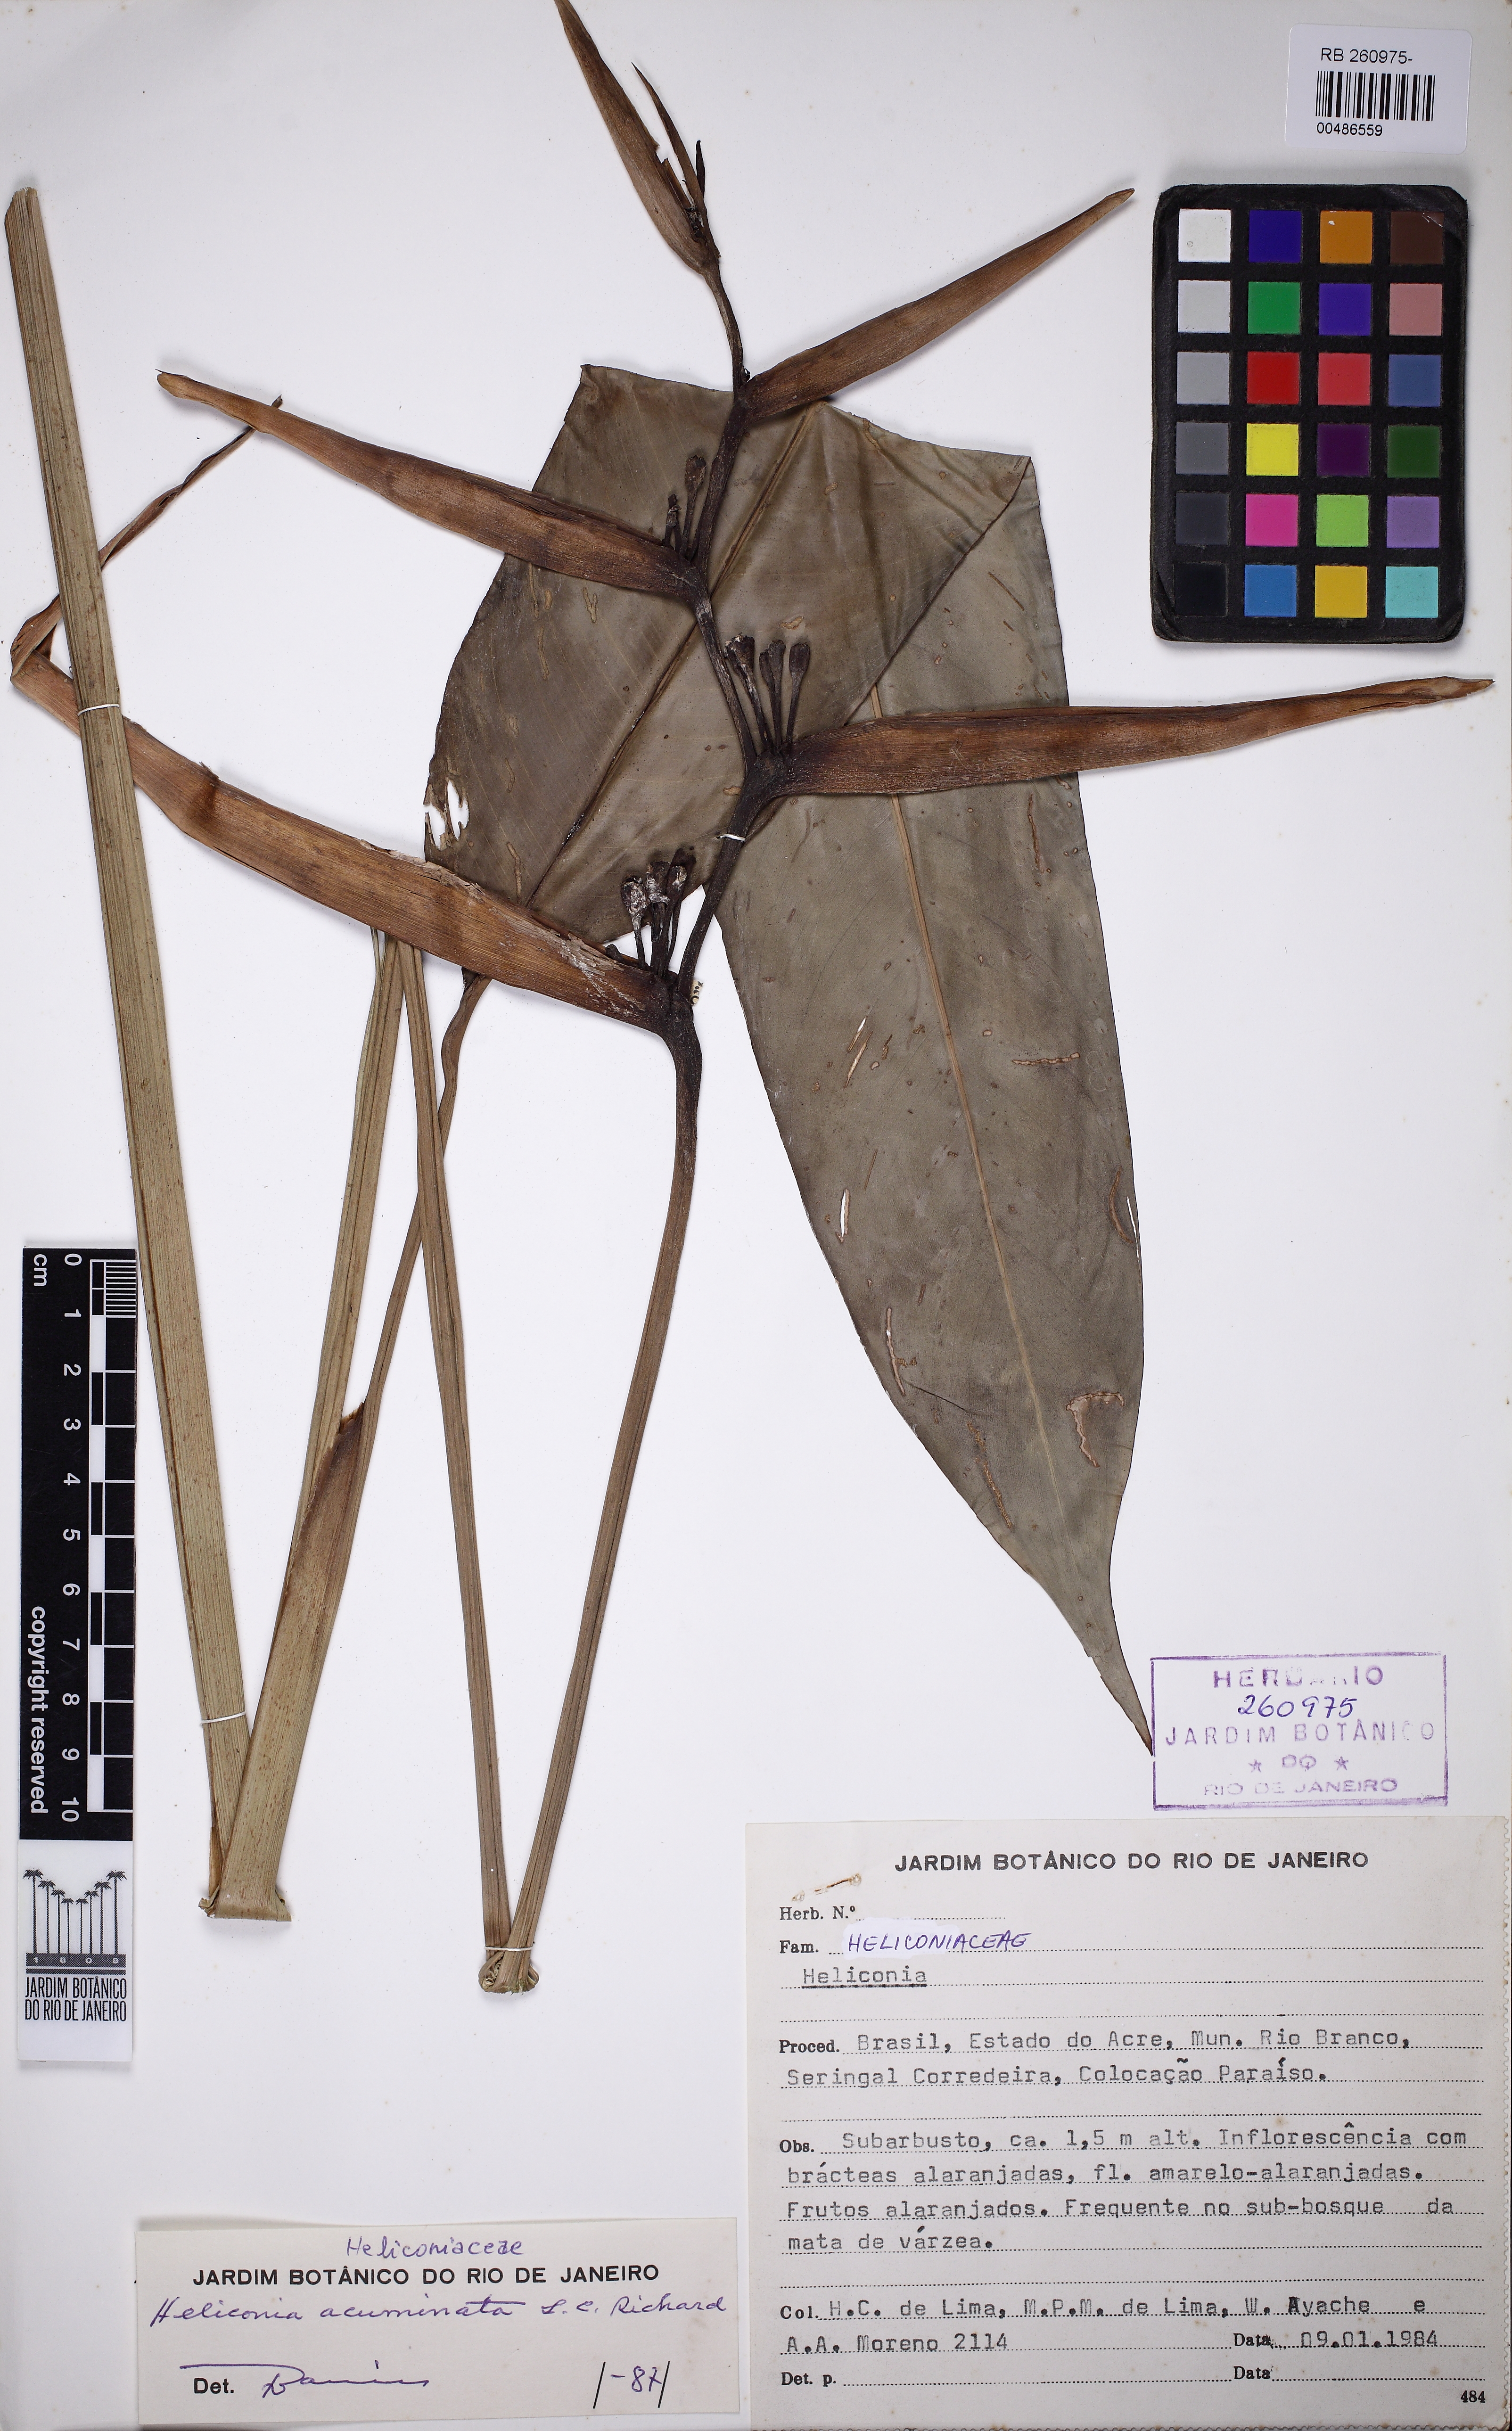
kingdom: Plantae
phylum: Tracheophyta
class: Liliopsida
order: Zingiberales
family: Heliconiaceae
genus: Heliconia
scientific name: Heliconia acuminata
